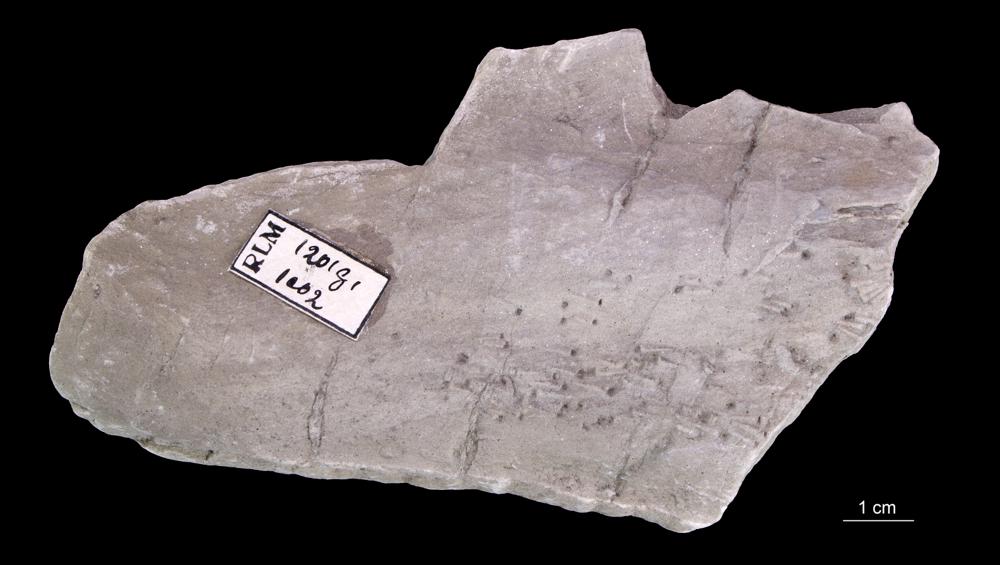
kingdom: Animalia
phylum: Annelida
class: Polychaeta
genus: Volborthella
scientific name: Volborthella tenuis
